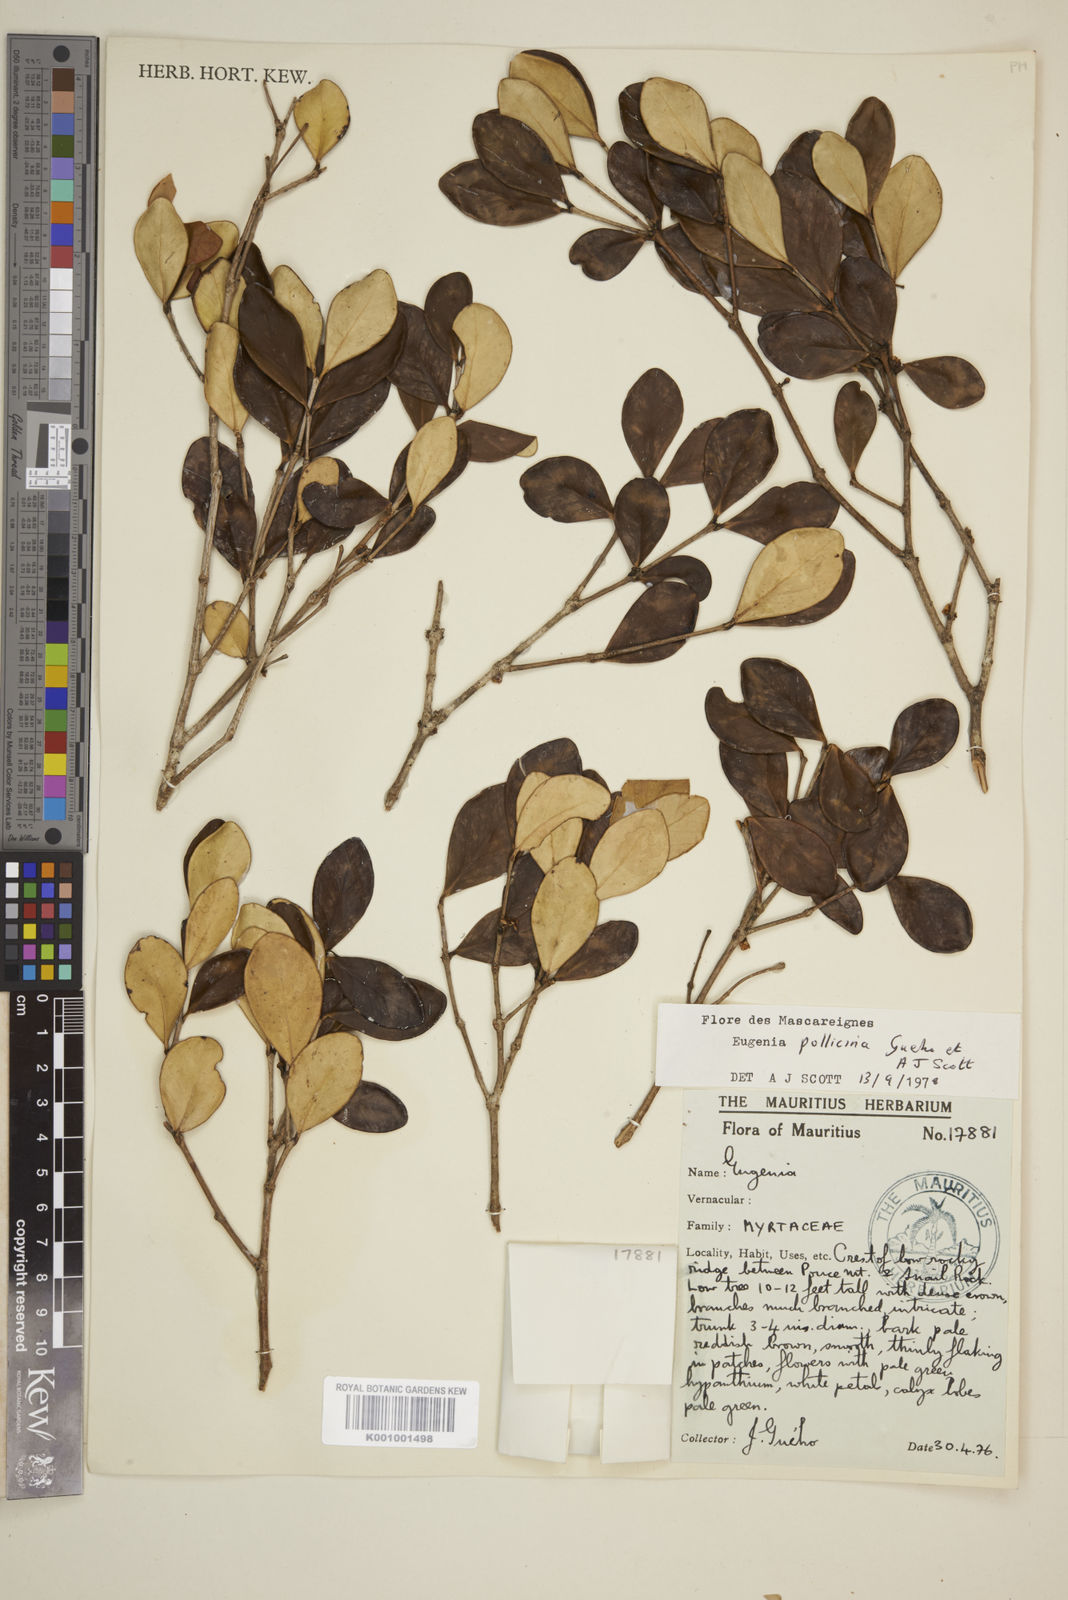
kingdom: Plantae
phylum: Tracheophyta
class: Magnoliopsida
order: Myrtales
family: Myrtaceae
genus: Eugenia
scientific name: Eugenia
